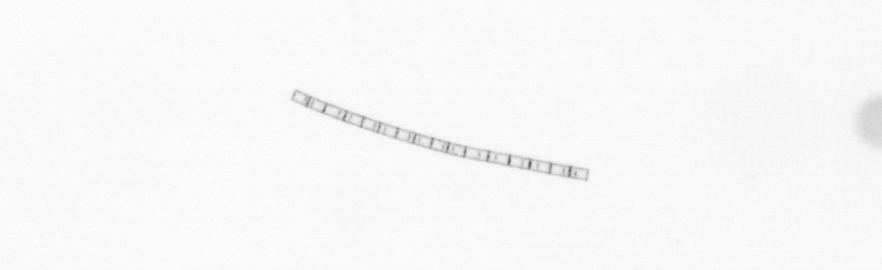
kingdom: Chromista
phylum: Ochrophyta
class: Bacillariophyceae
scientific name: Bacillariophyceae
